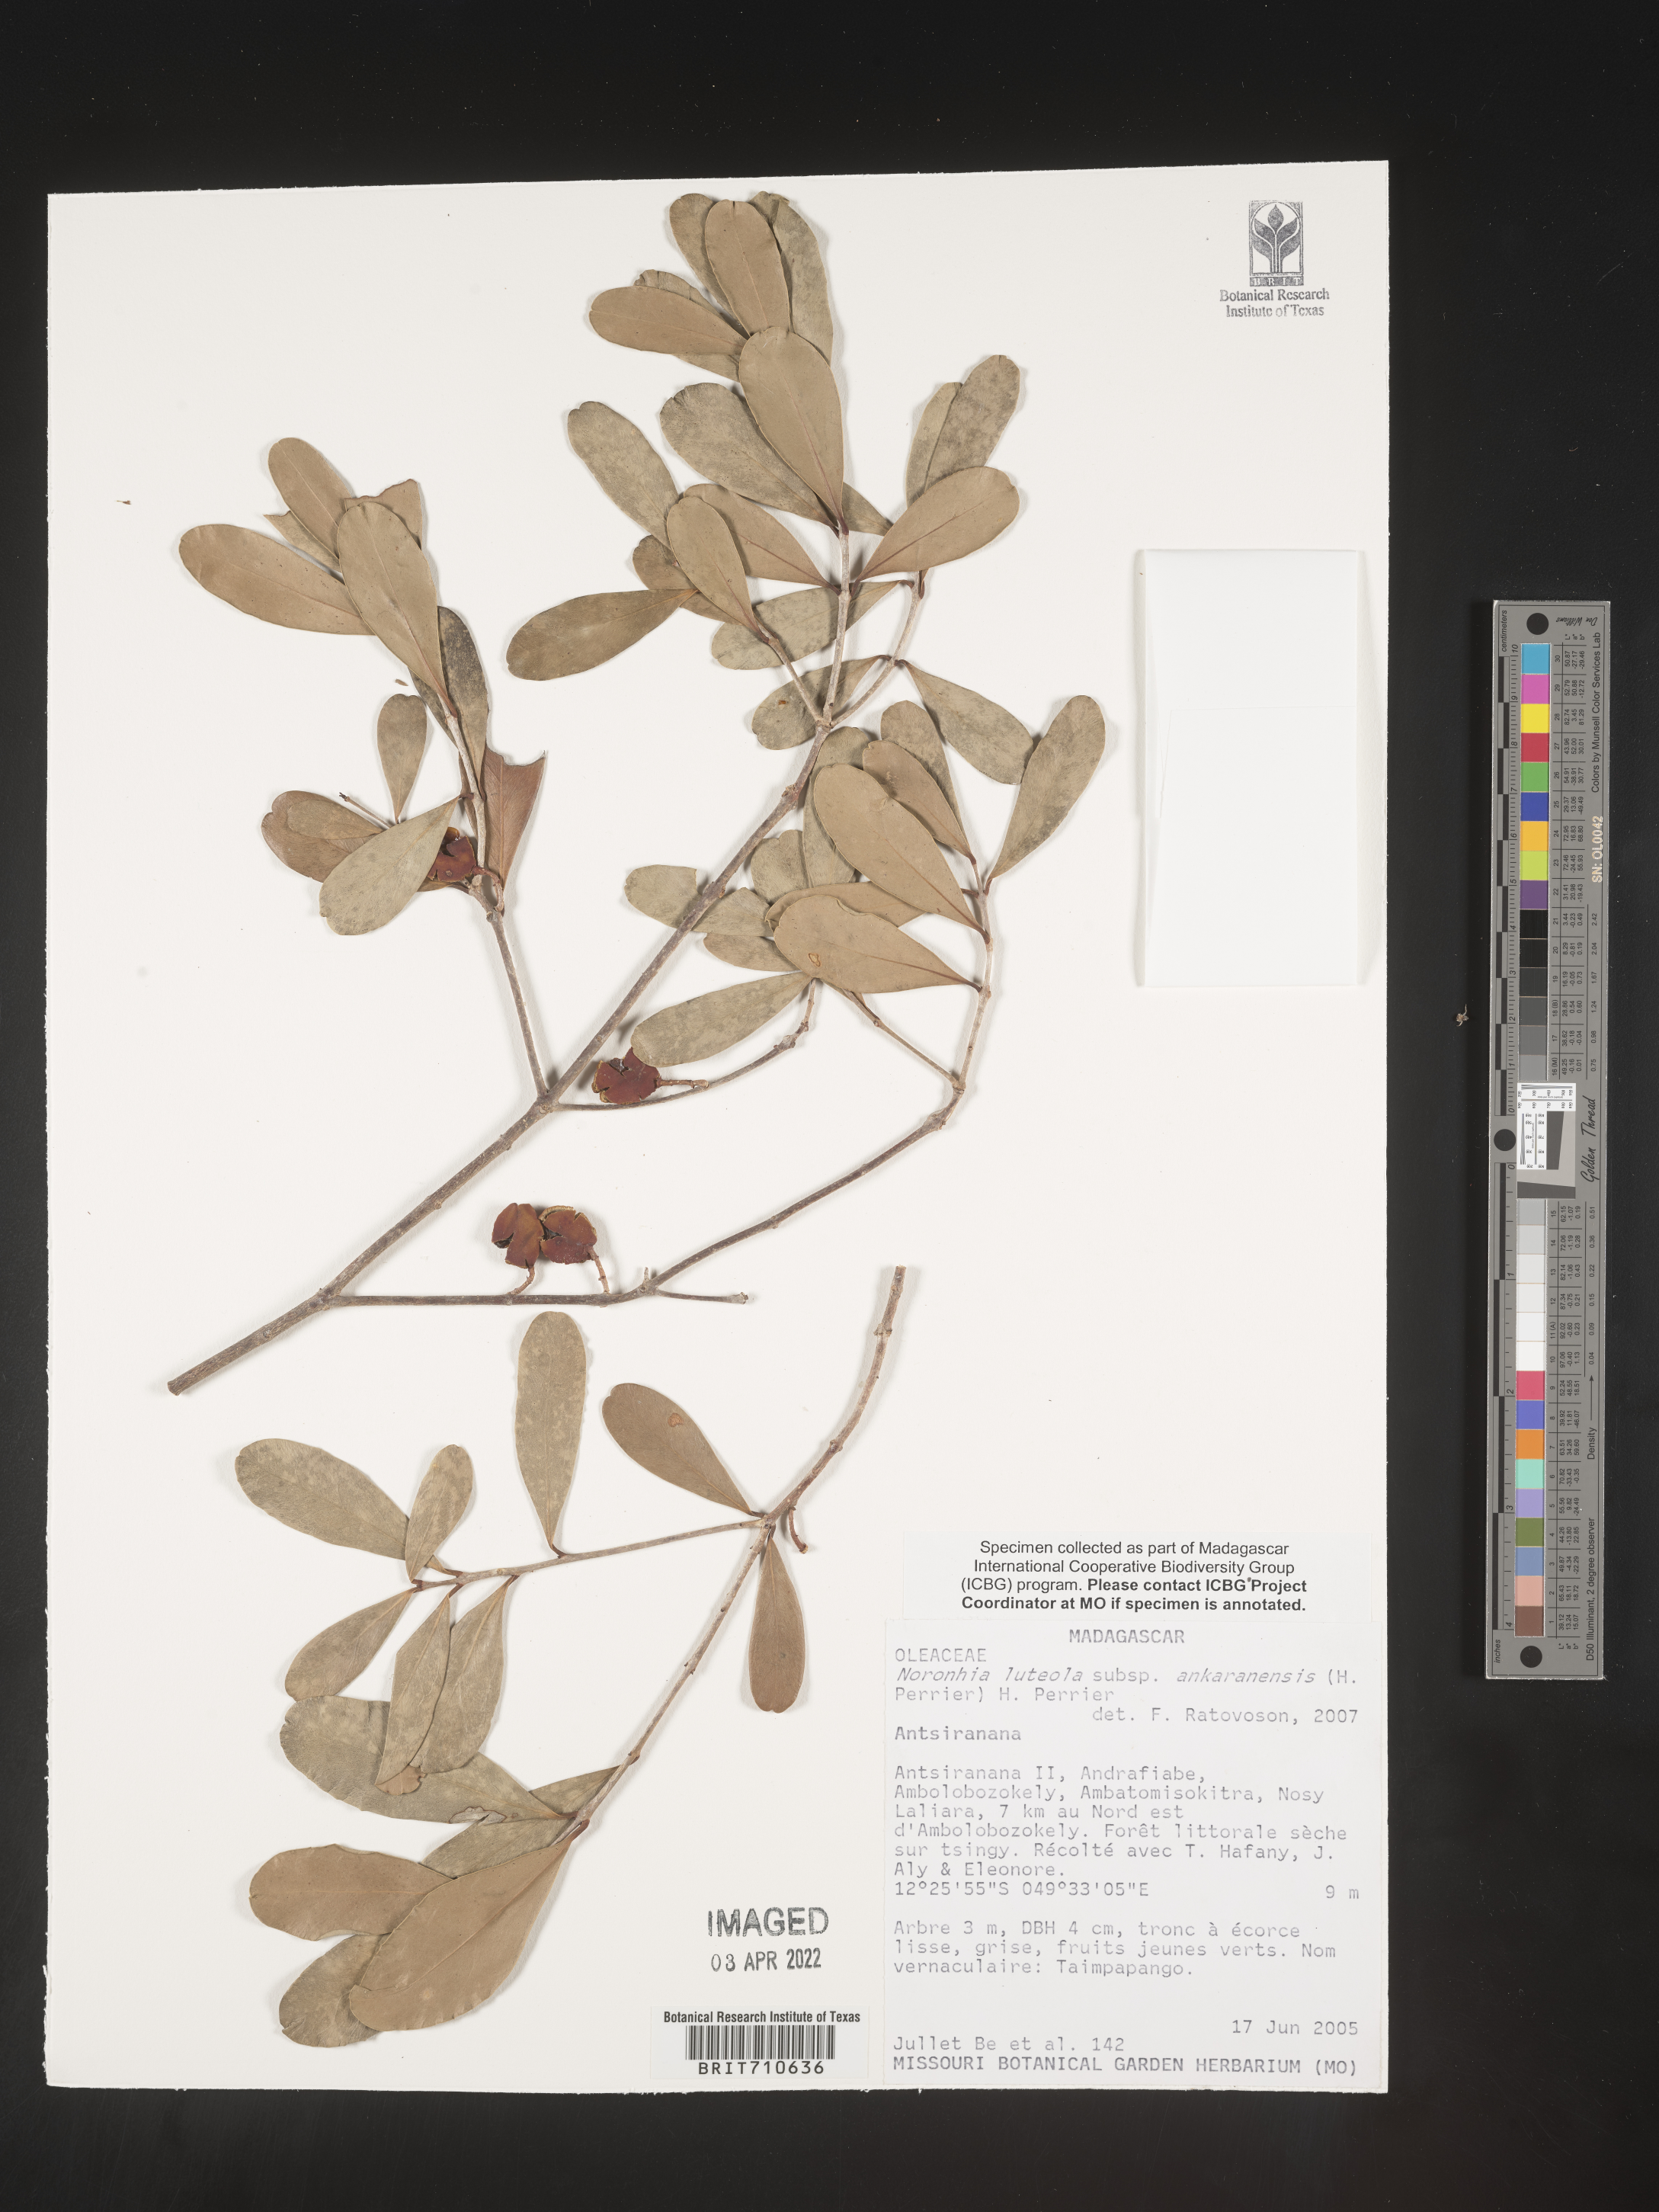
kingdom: Plantae
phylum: Tracheophyta
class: Magnoliopsida
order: Lamiales
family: Oleaceae
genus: Noronhia
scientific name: Noronhia
